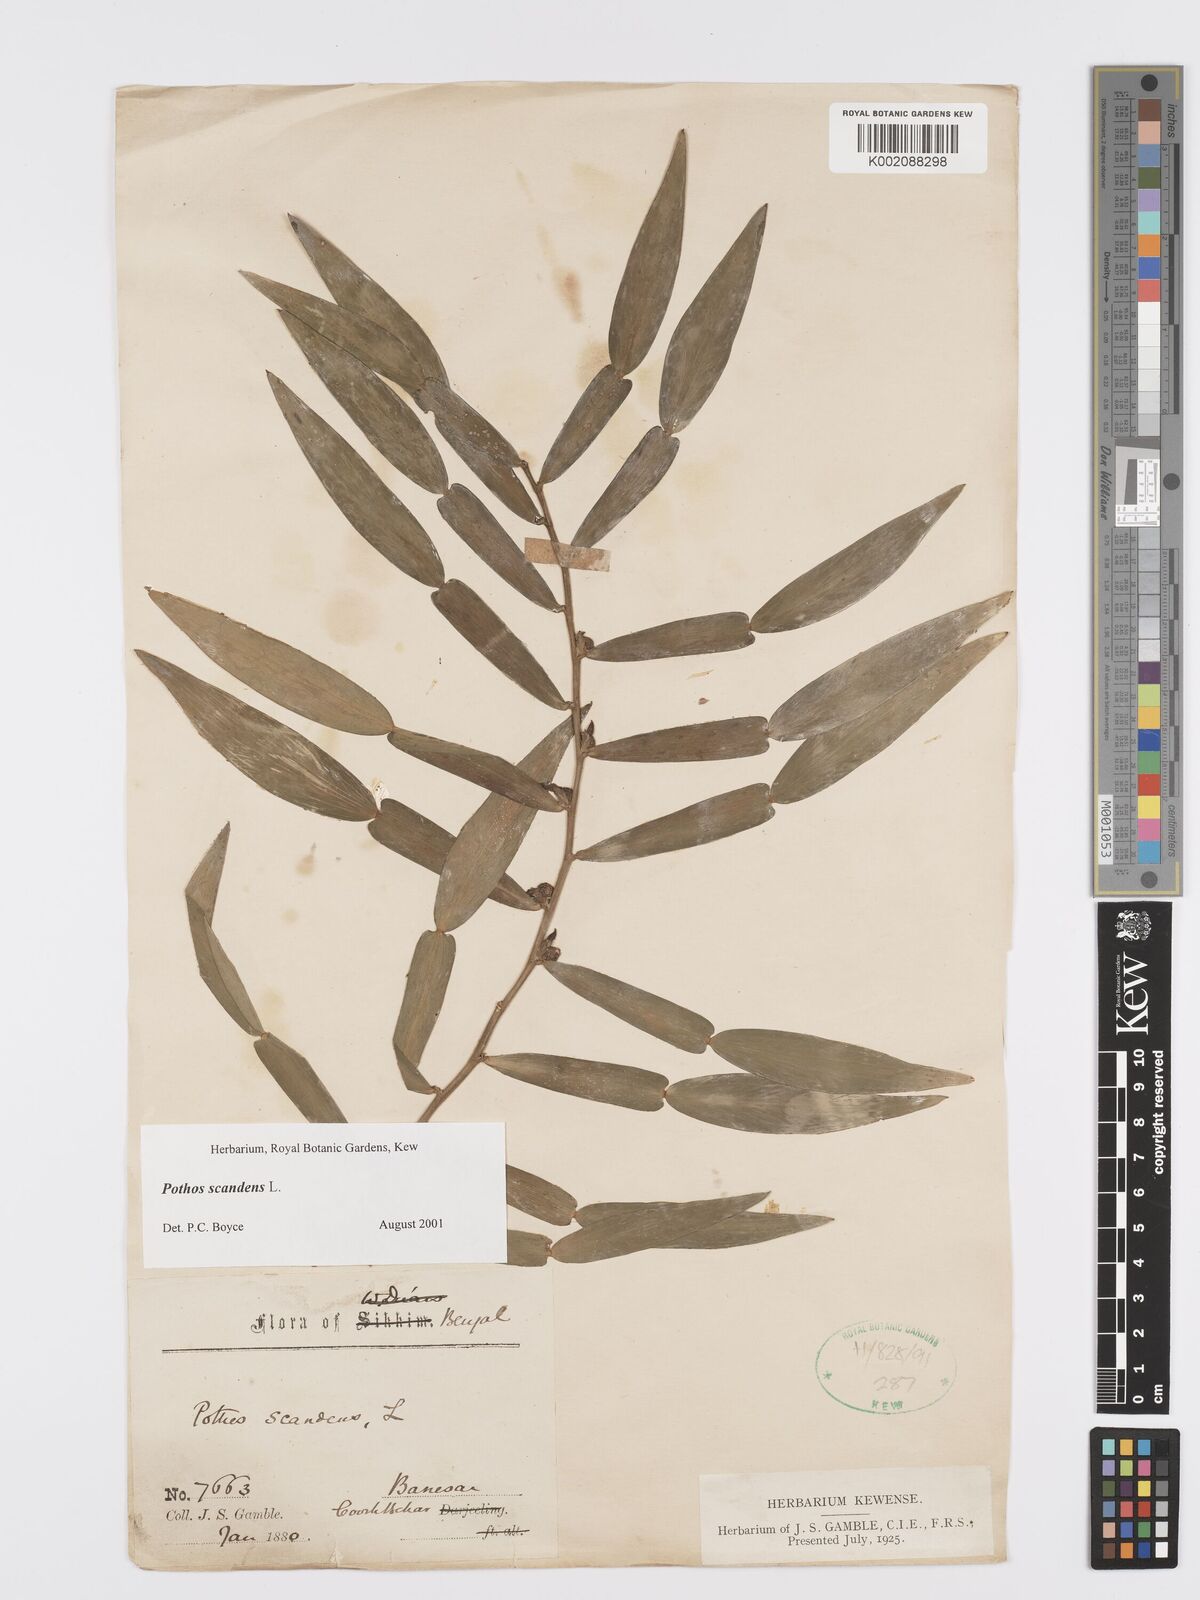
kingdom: Plantae
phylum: Tracheophyta
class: Liliopsida
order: Alismatales
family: Araceae
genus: Pothos
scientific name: Pothos scandens
